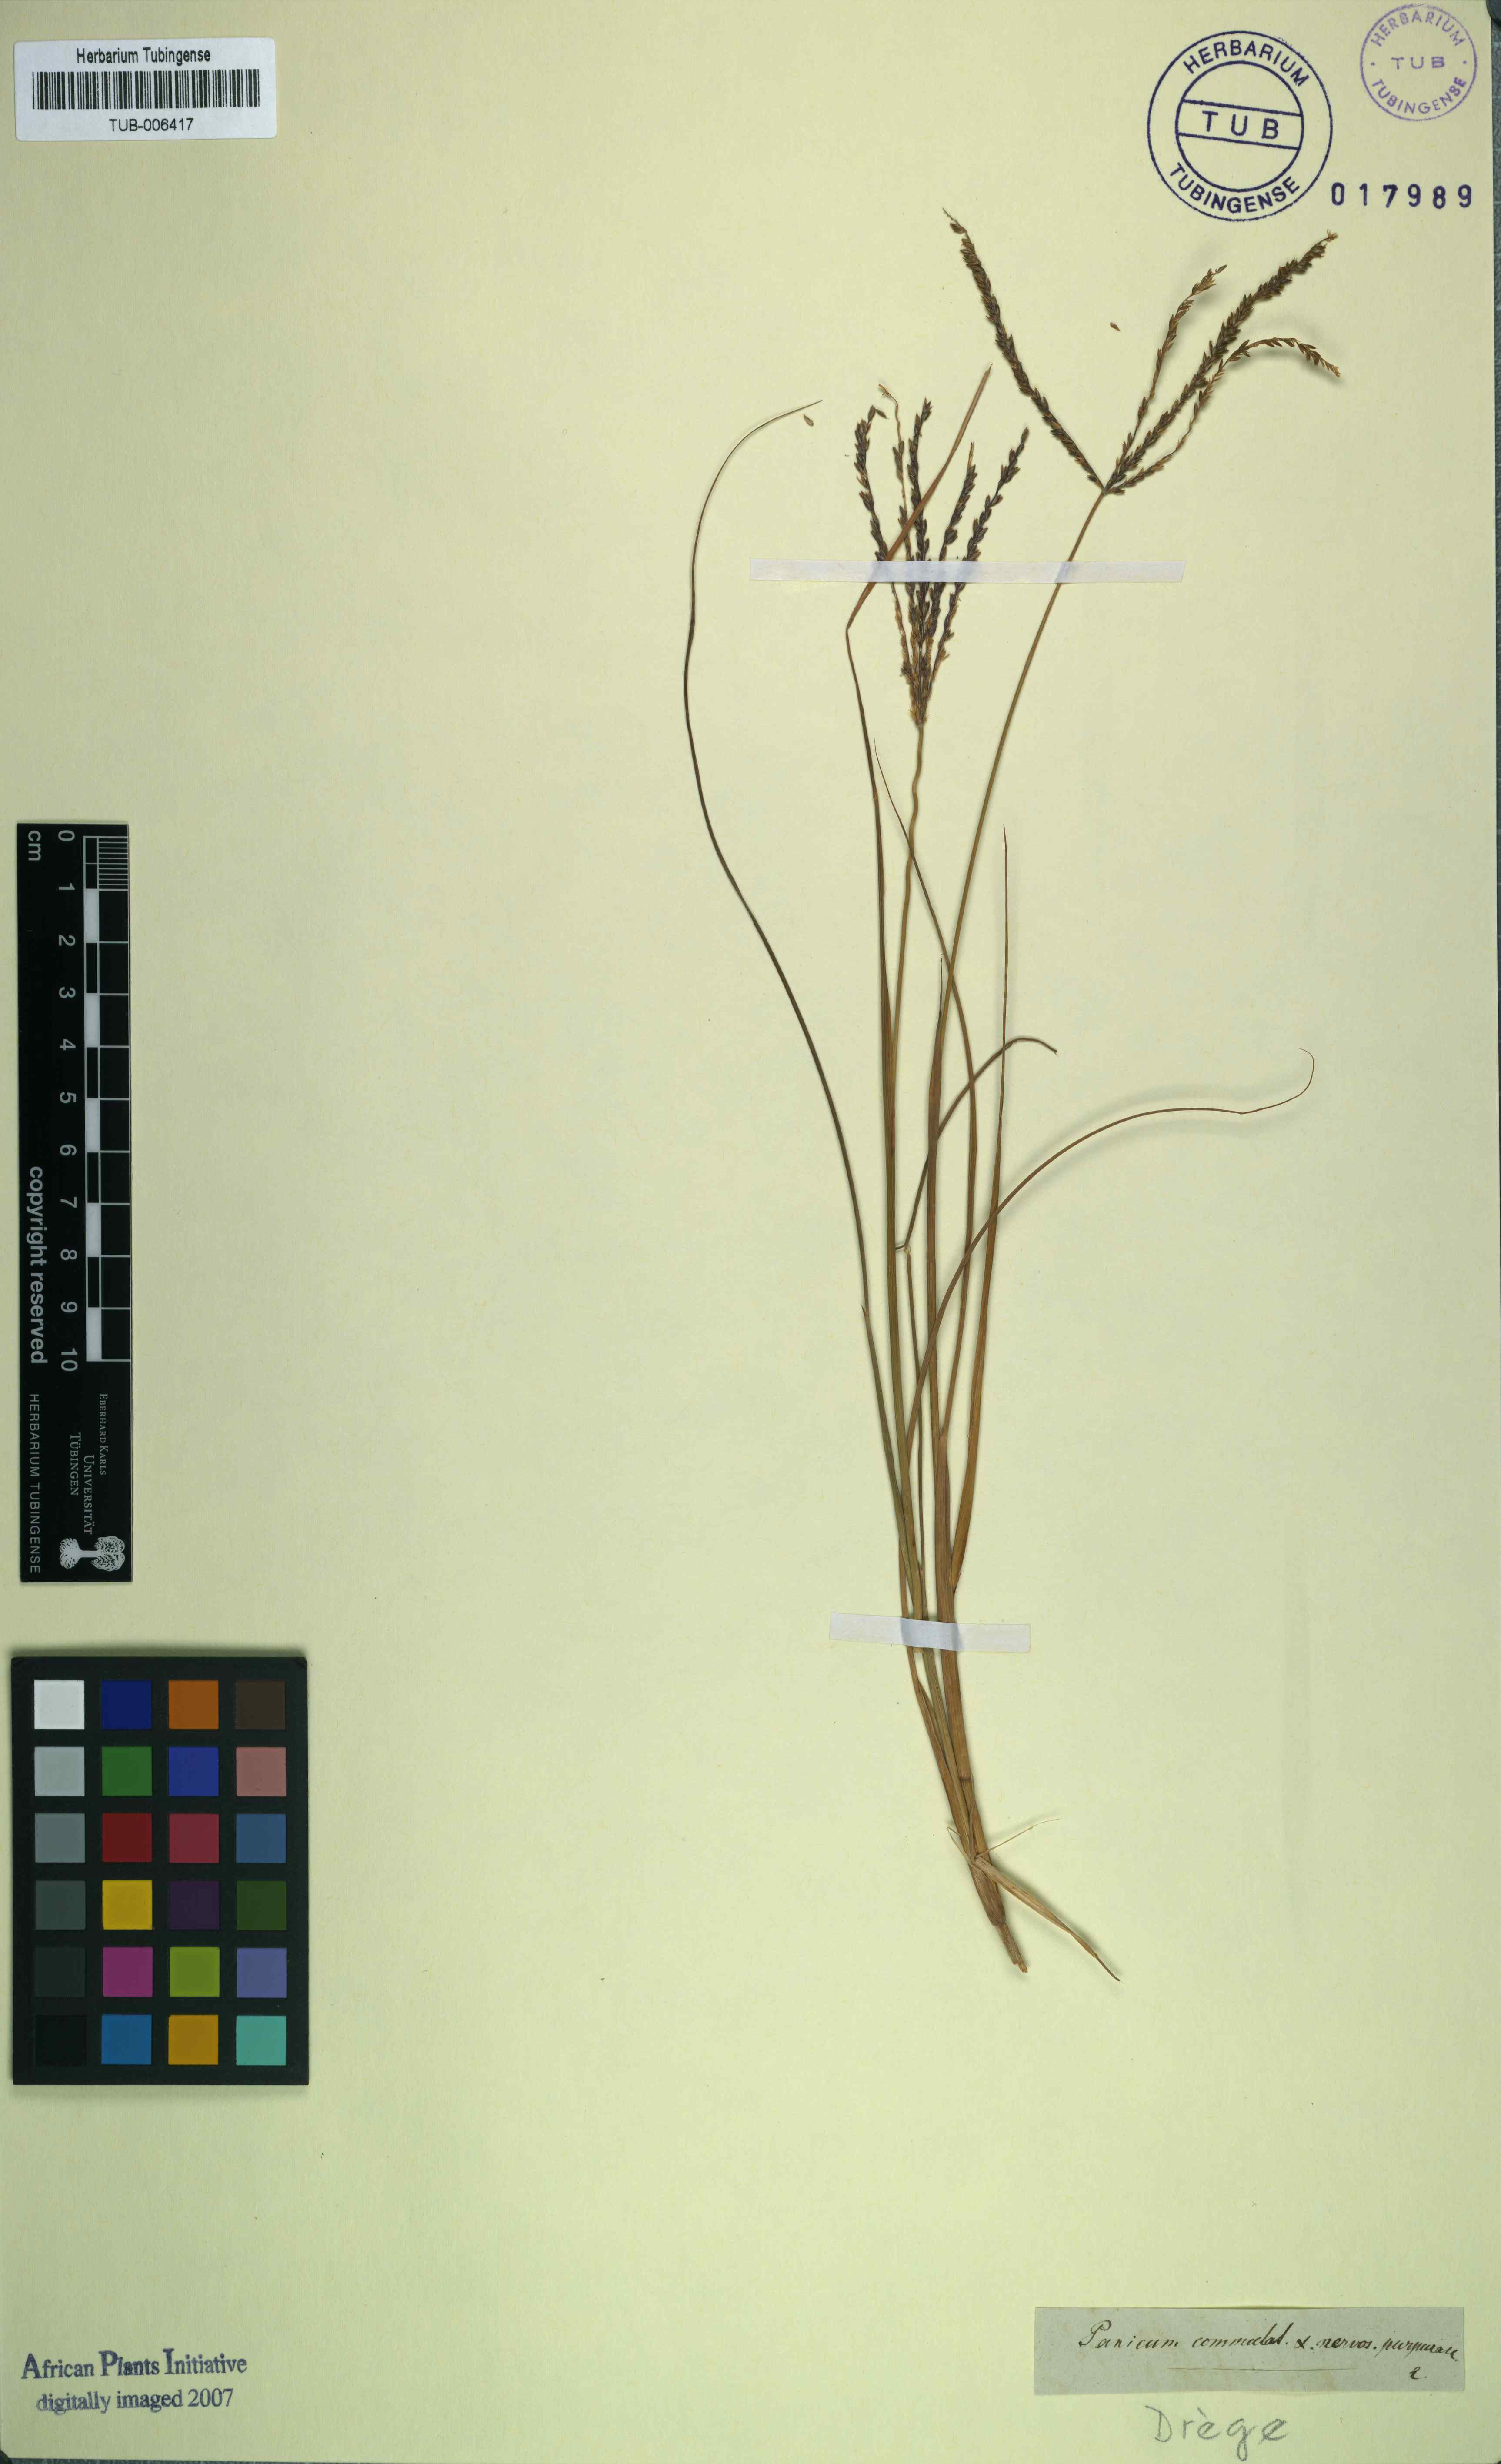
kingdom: Plantae
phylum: Tracheophyta
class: Liliopsida
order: Poales
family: Poaceae
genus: Dichanthelium
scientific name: Dichanthelium dichotomum
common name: Cypress panicgrass
